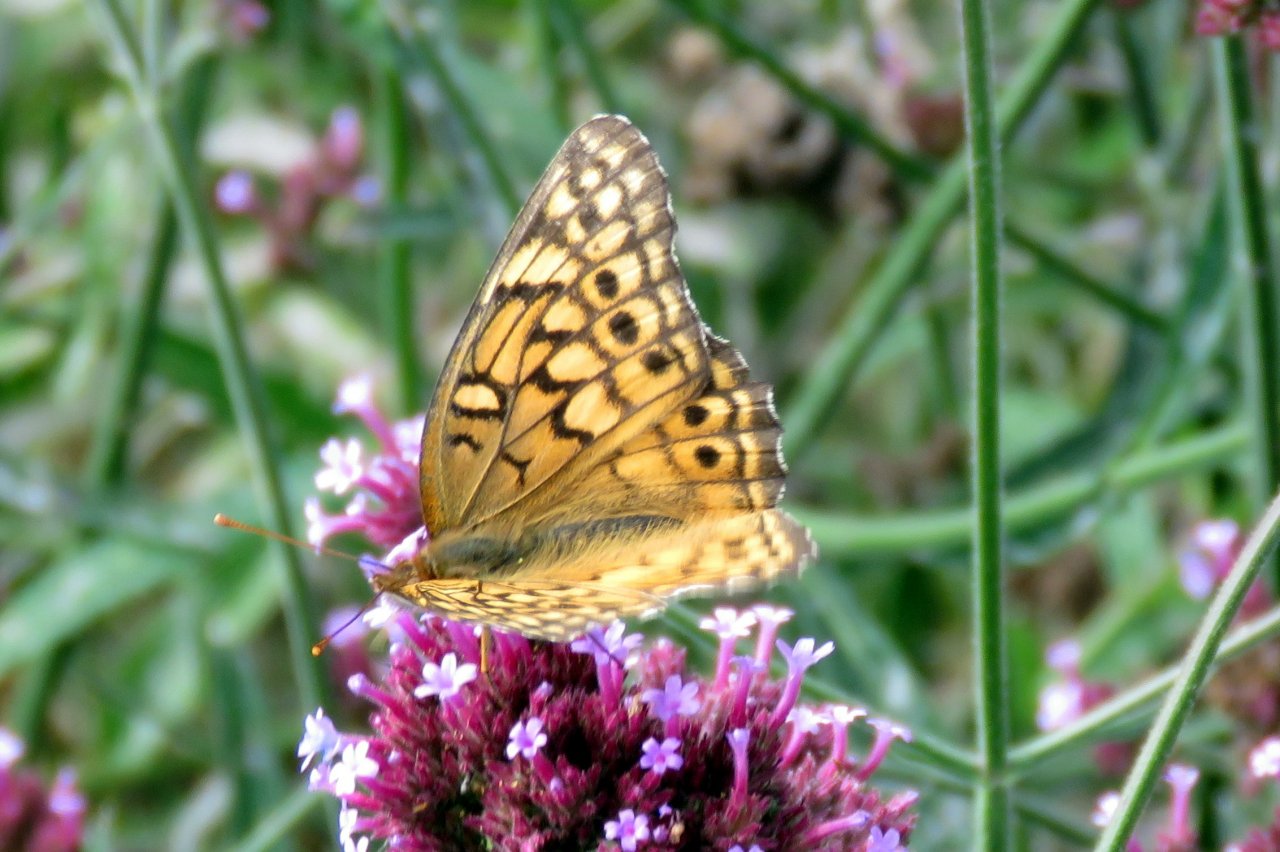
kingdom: Animalia
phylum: Arthropoda
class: Insecta
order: Lepidoptera
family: Nymphalidae
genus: Euptoieta
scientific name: Euptoieta claudia
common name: Variegated Fritillary
